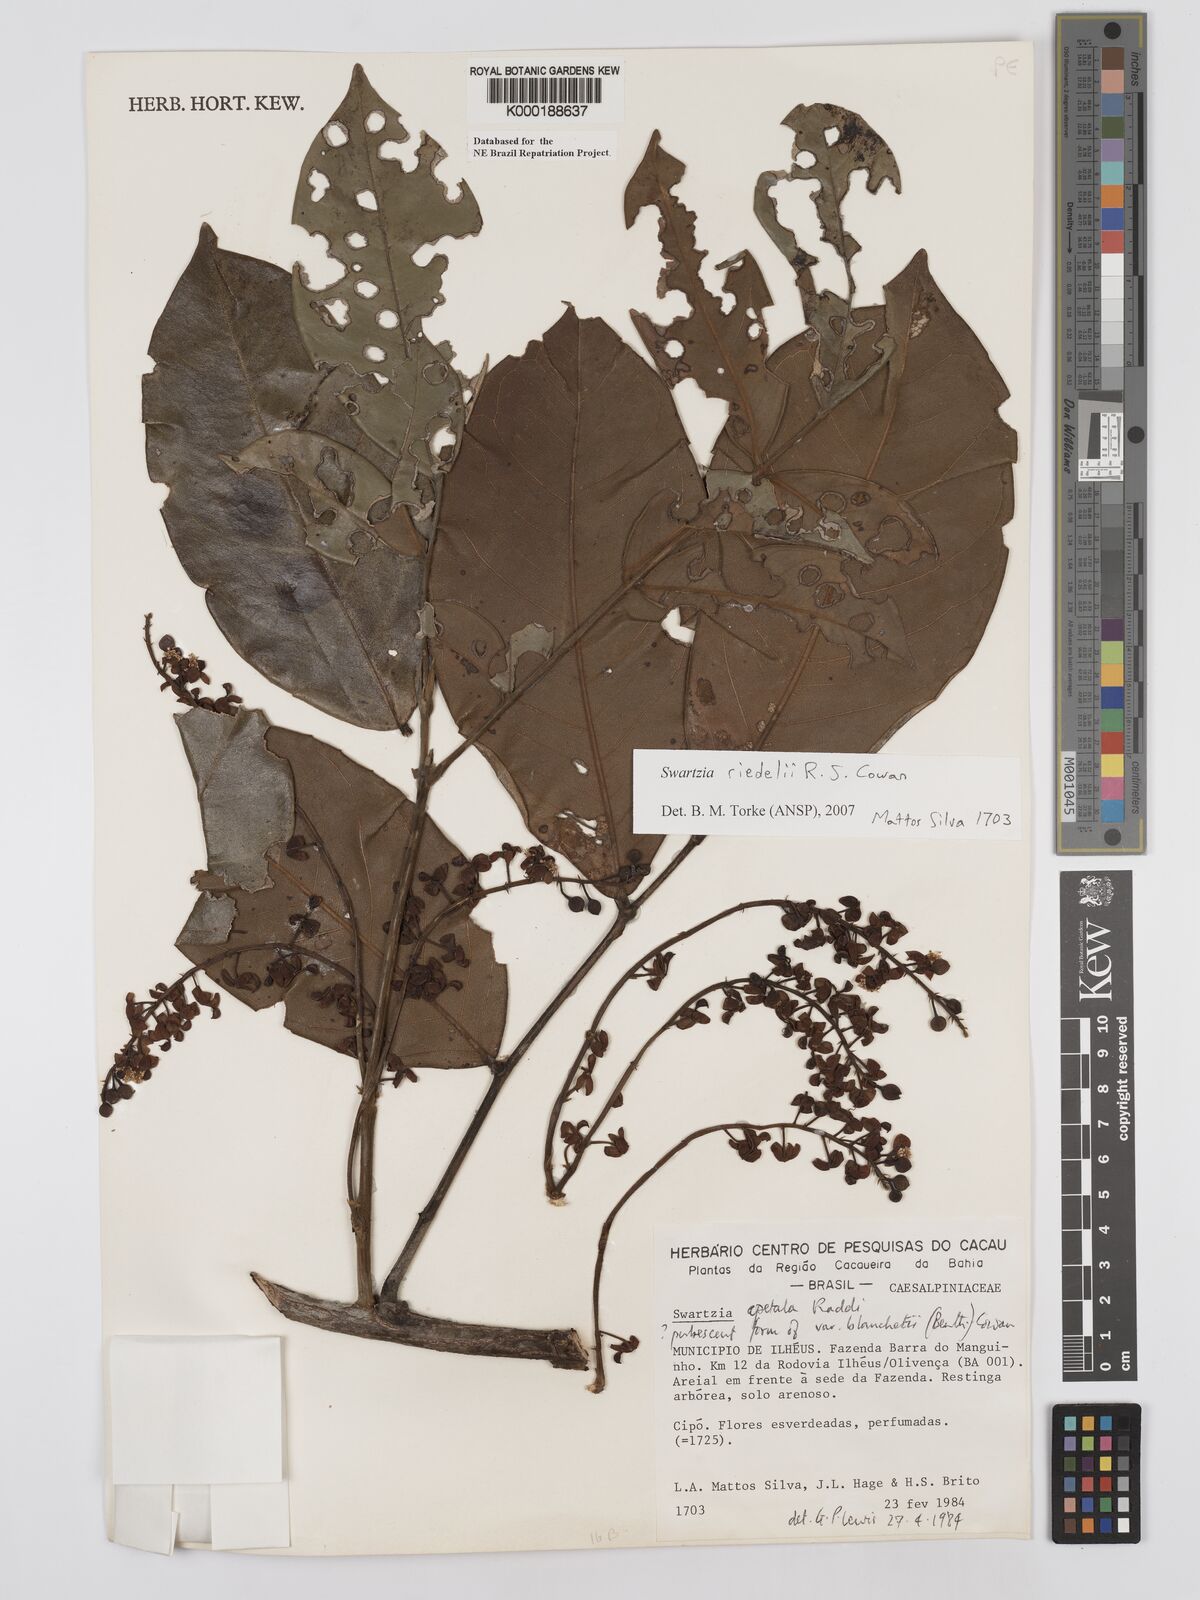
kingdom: Plantae
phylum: Tracheophyta
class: Magnoliopsida
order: Fabales
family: Fabaceae
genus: Swartzia
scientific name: Swartzia apetala
